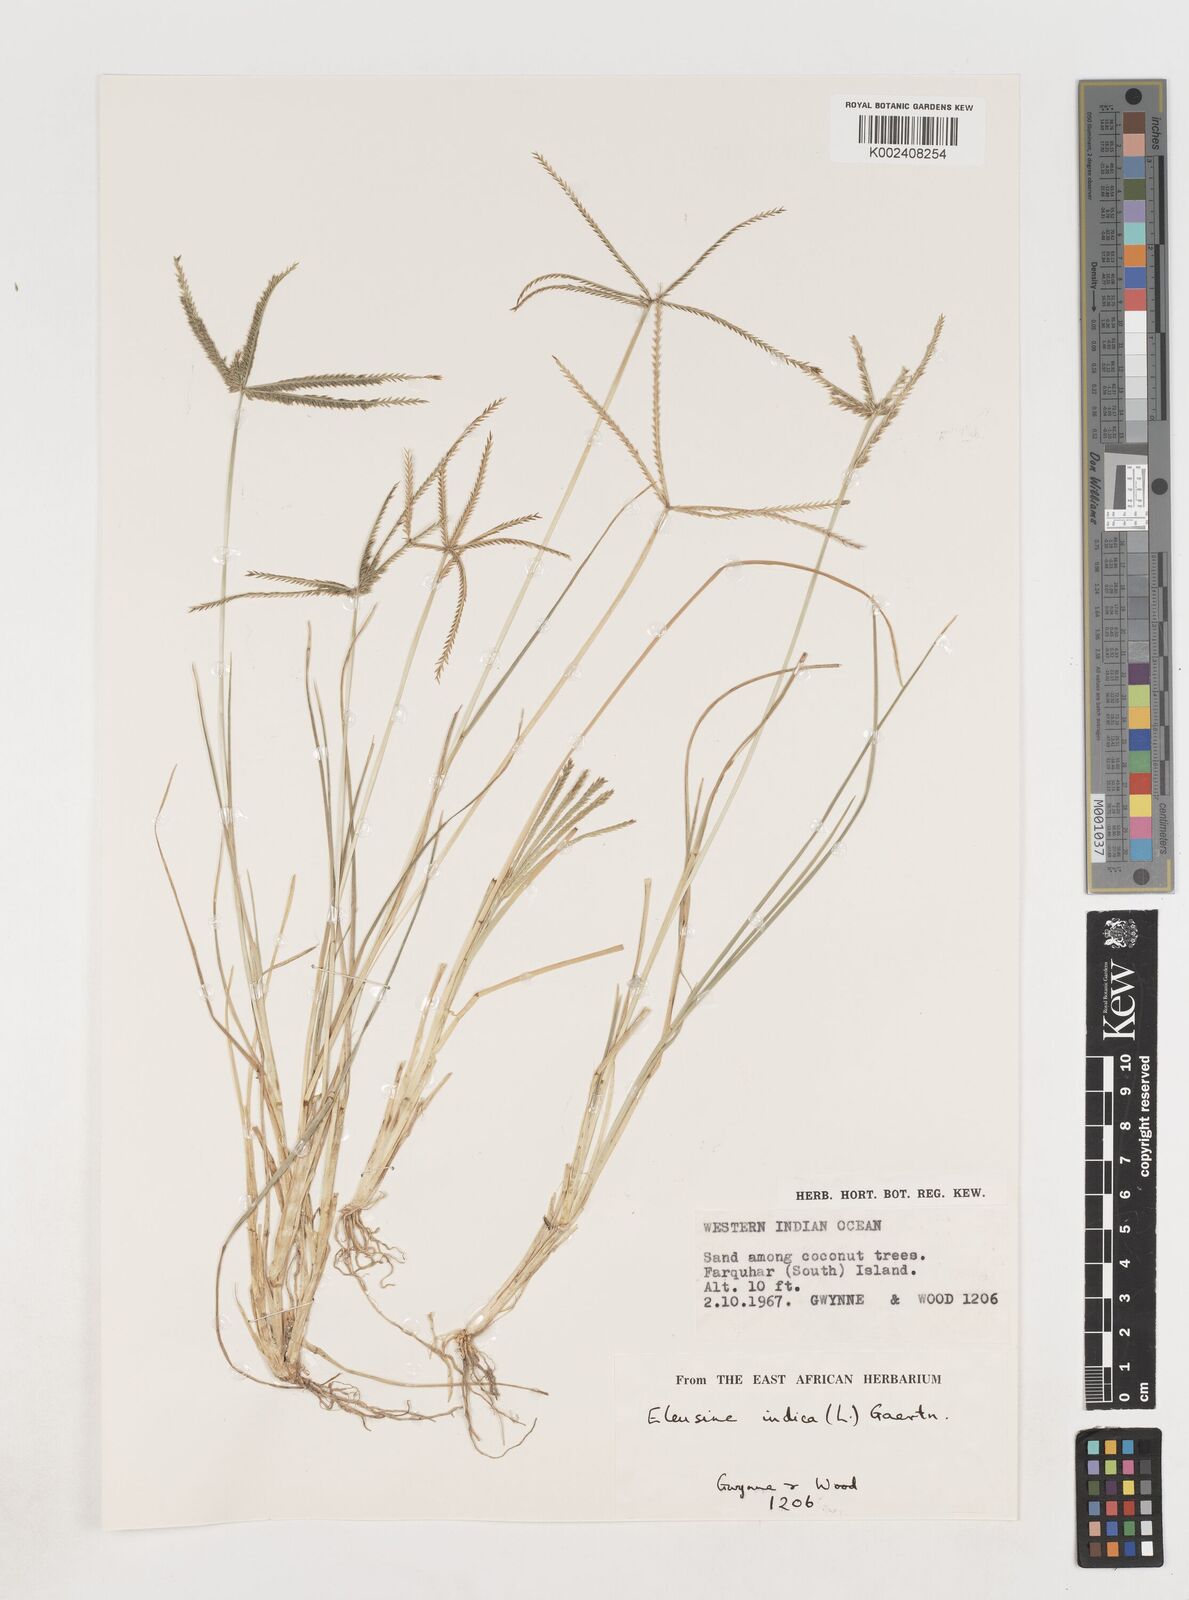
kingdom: Plantae
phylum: Tracheophyta
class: Liliopsida
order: Poales
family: Poaceae
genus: Eleusine
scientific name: Eleusine indica
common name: Yard-grass
